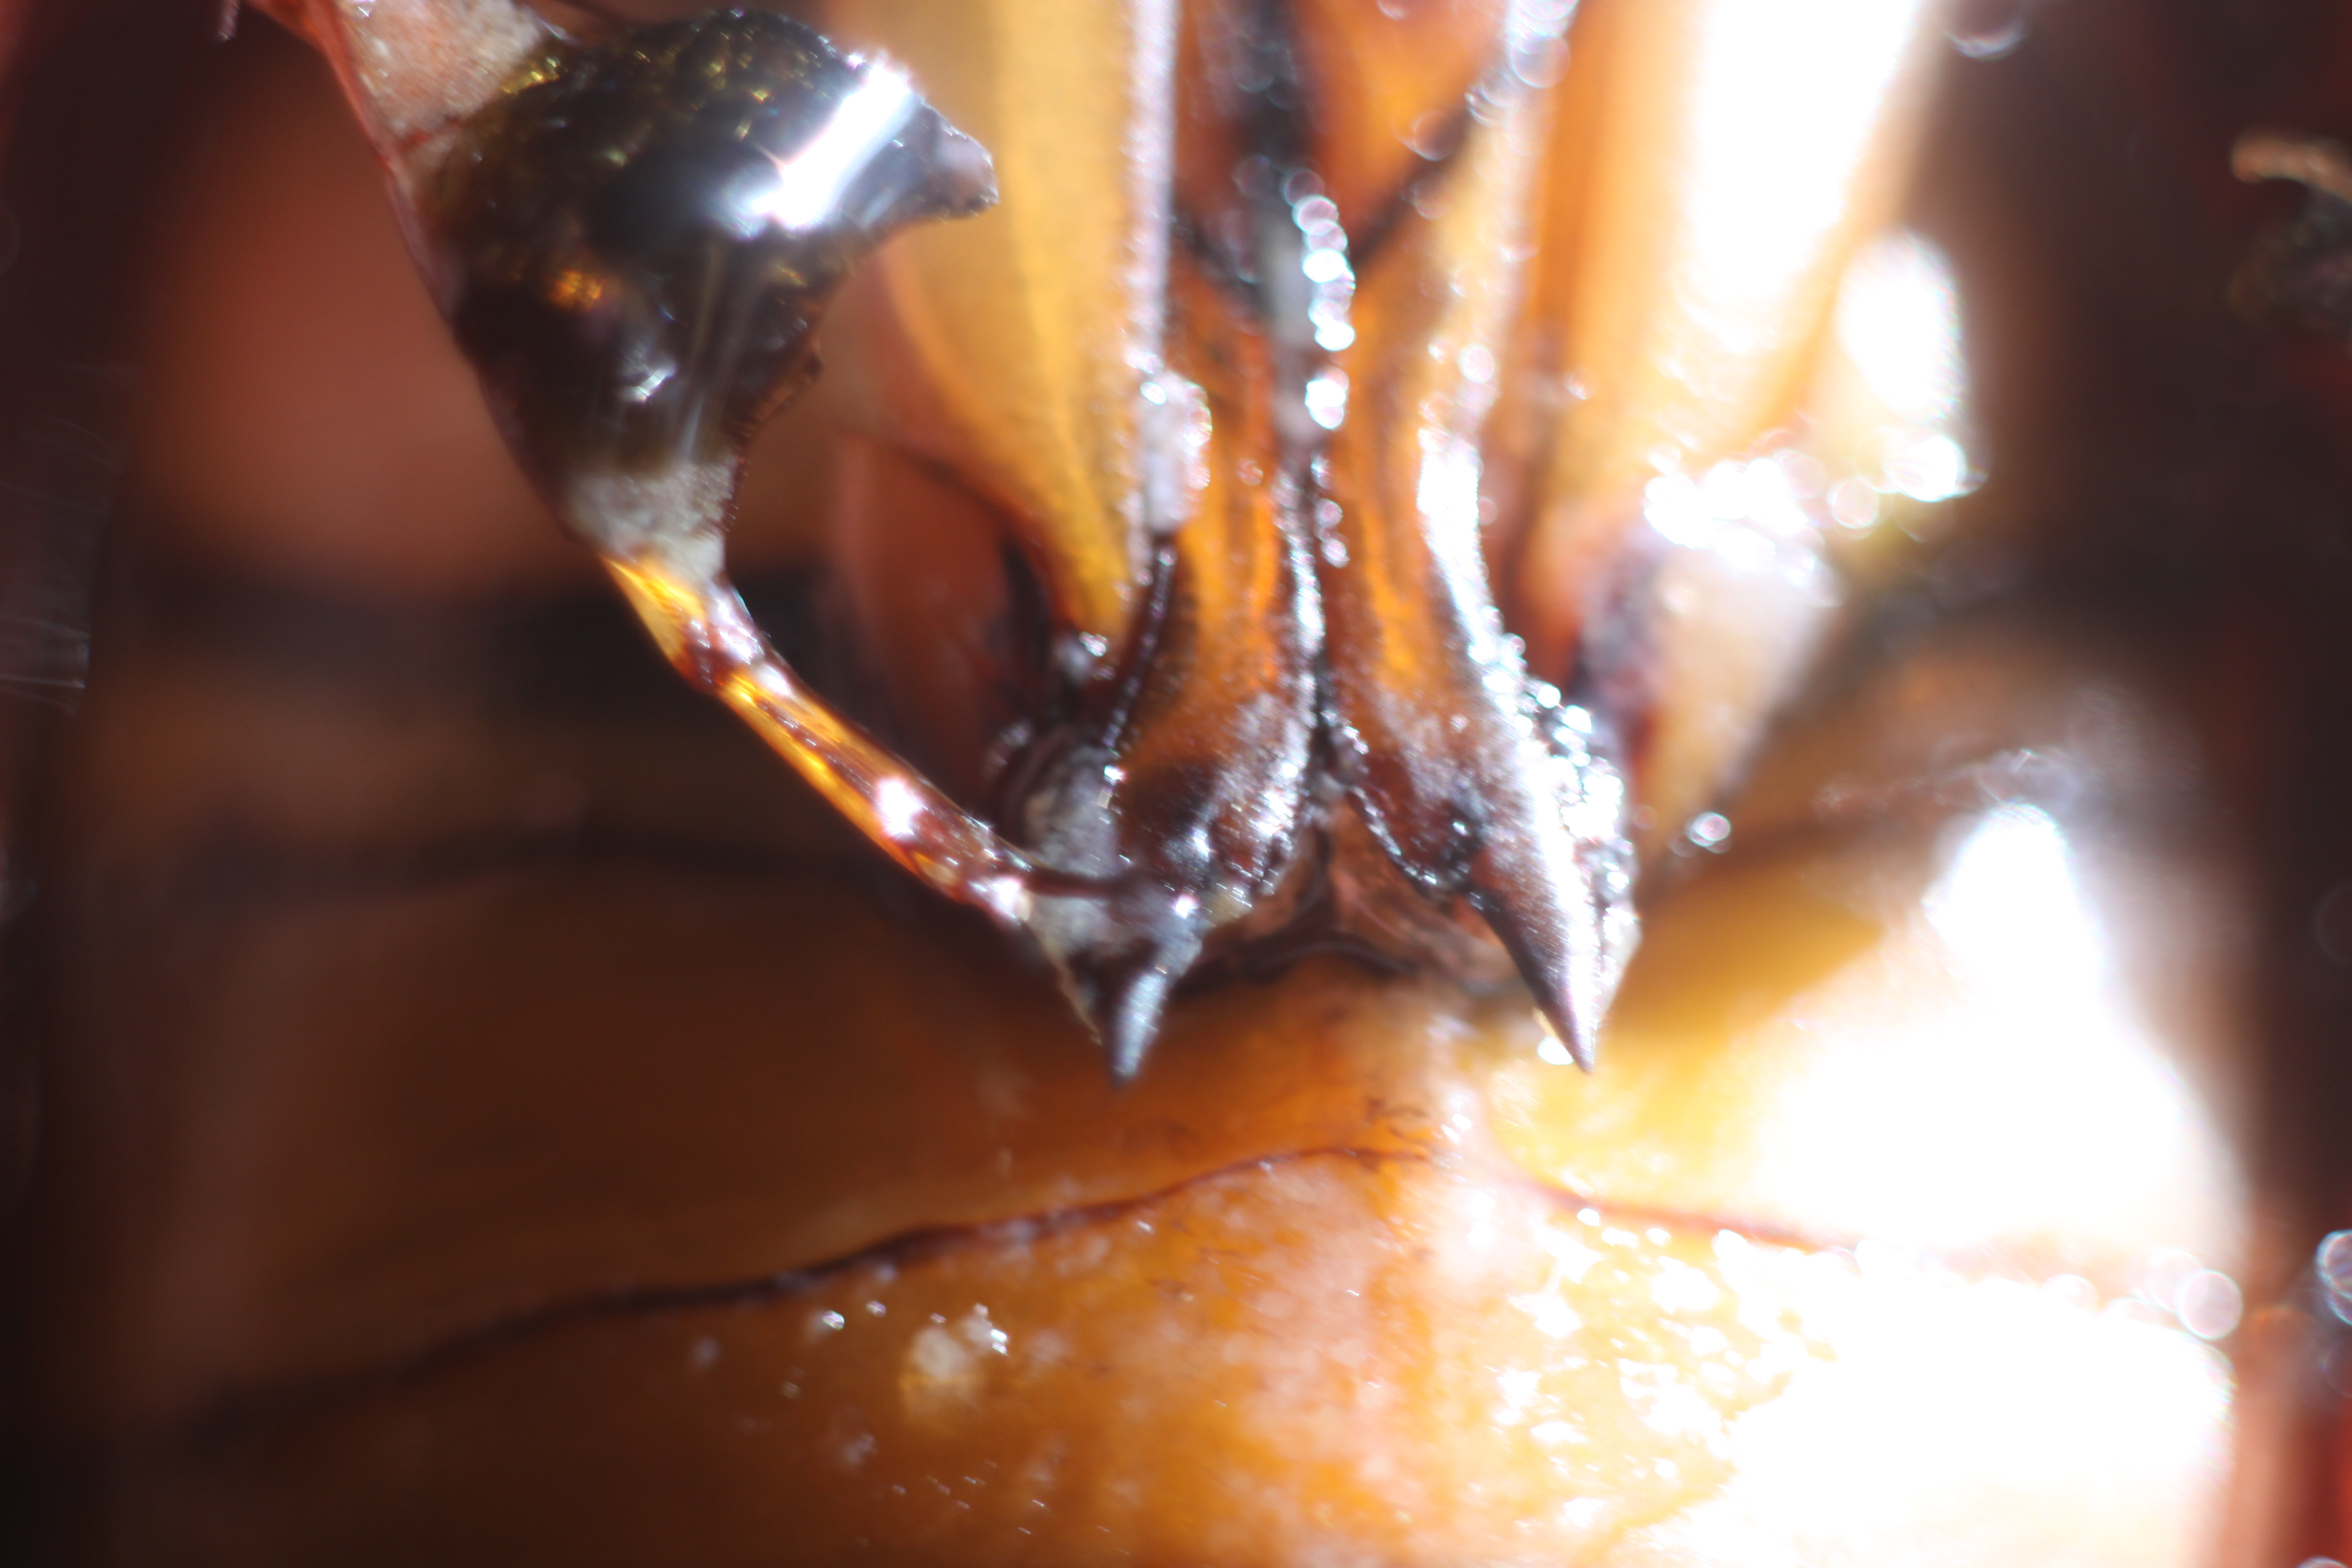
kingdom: Animalia
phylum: Arthropoda
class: Insecta
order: Coleoptera
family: Dytiscidae
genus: Dytiscus
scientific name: Dytiscus circumcinctus
